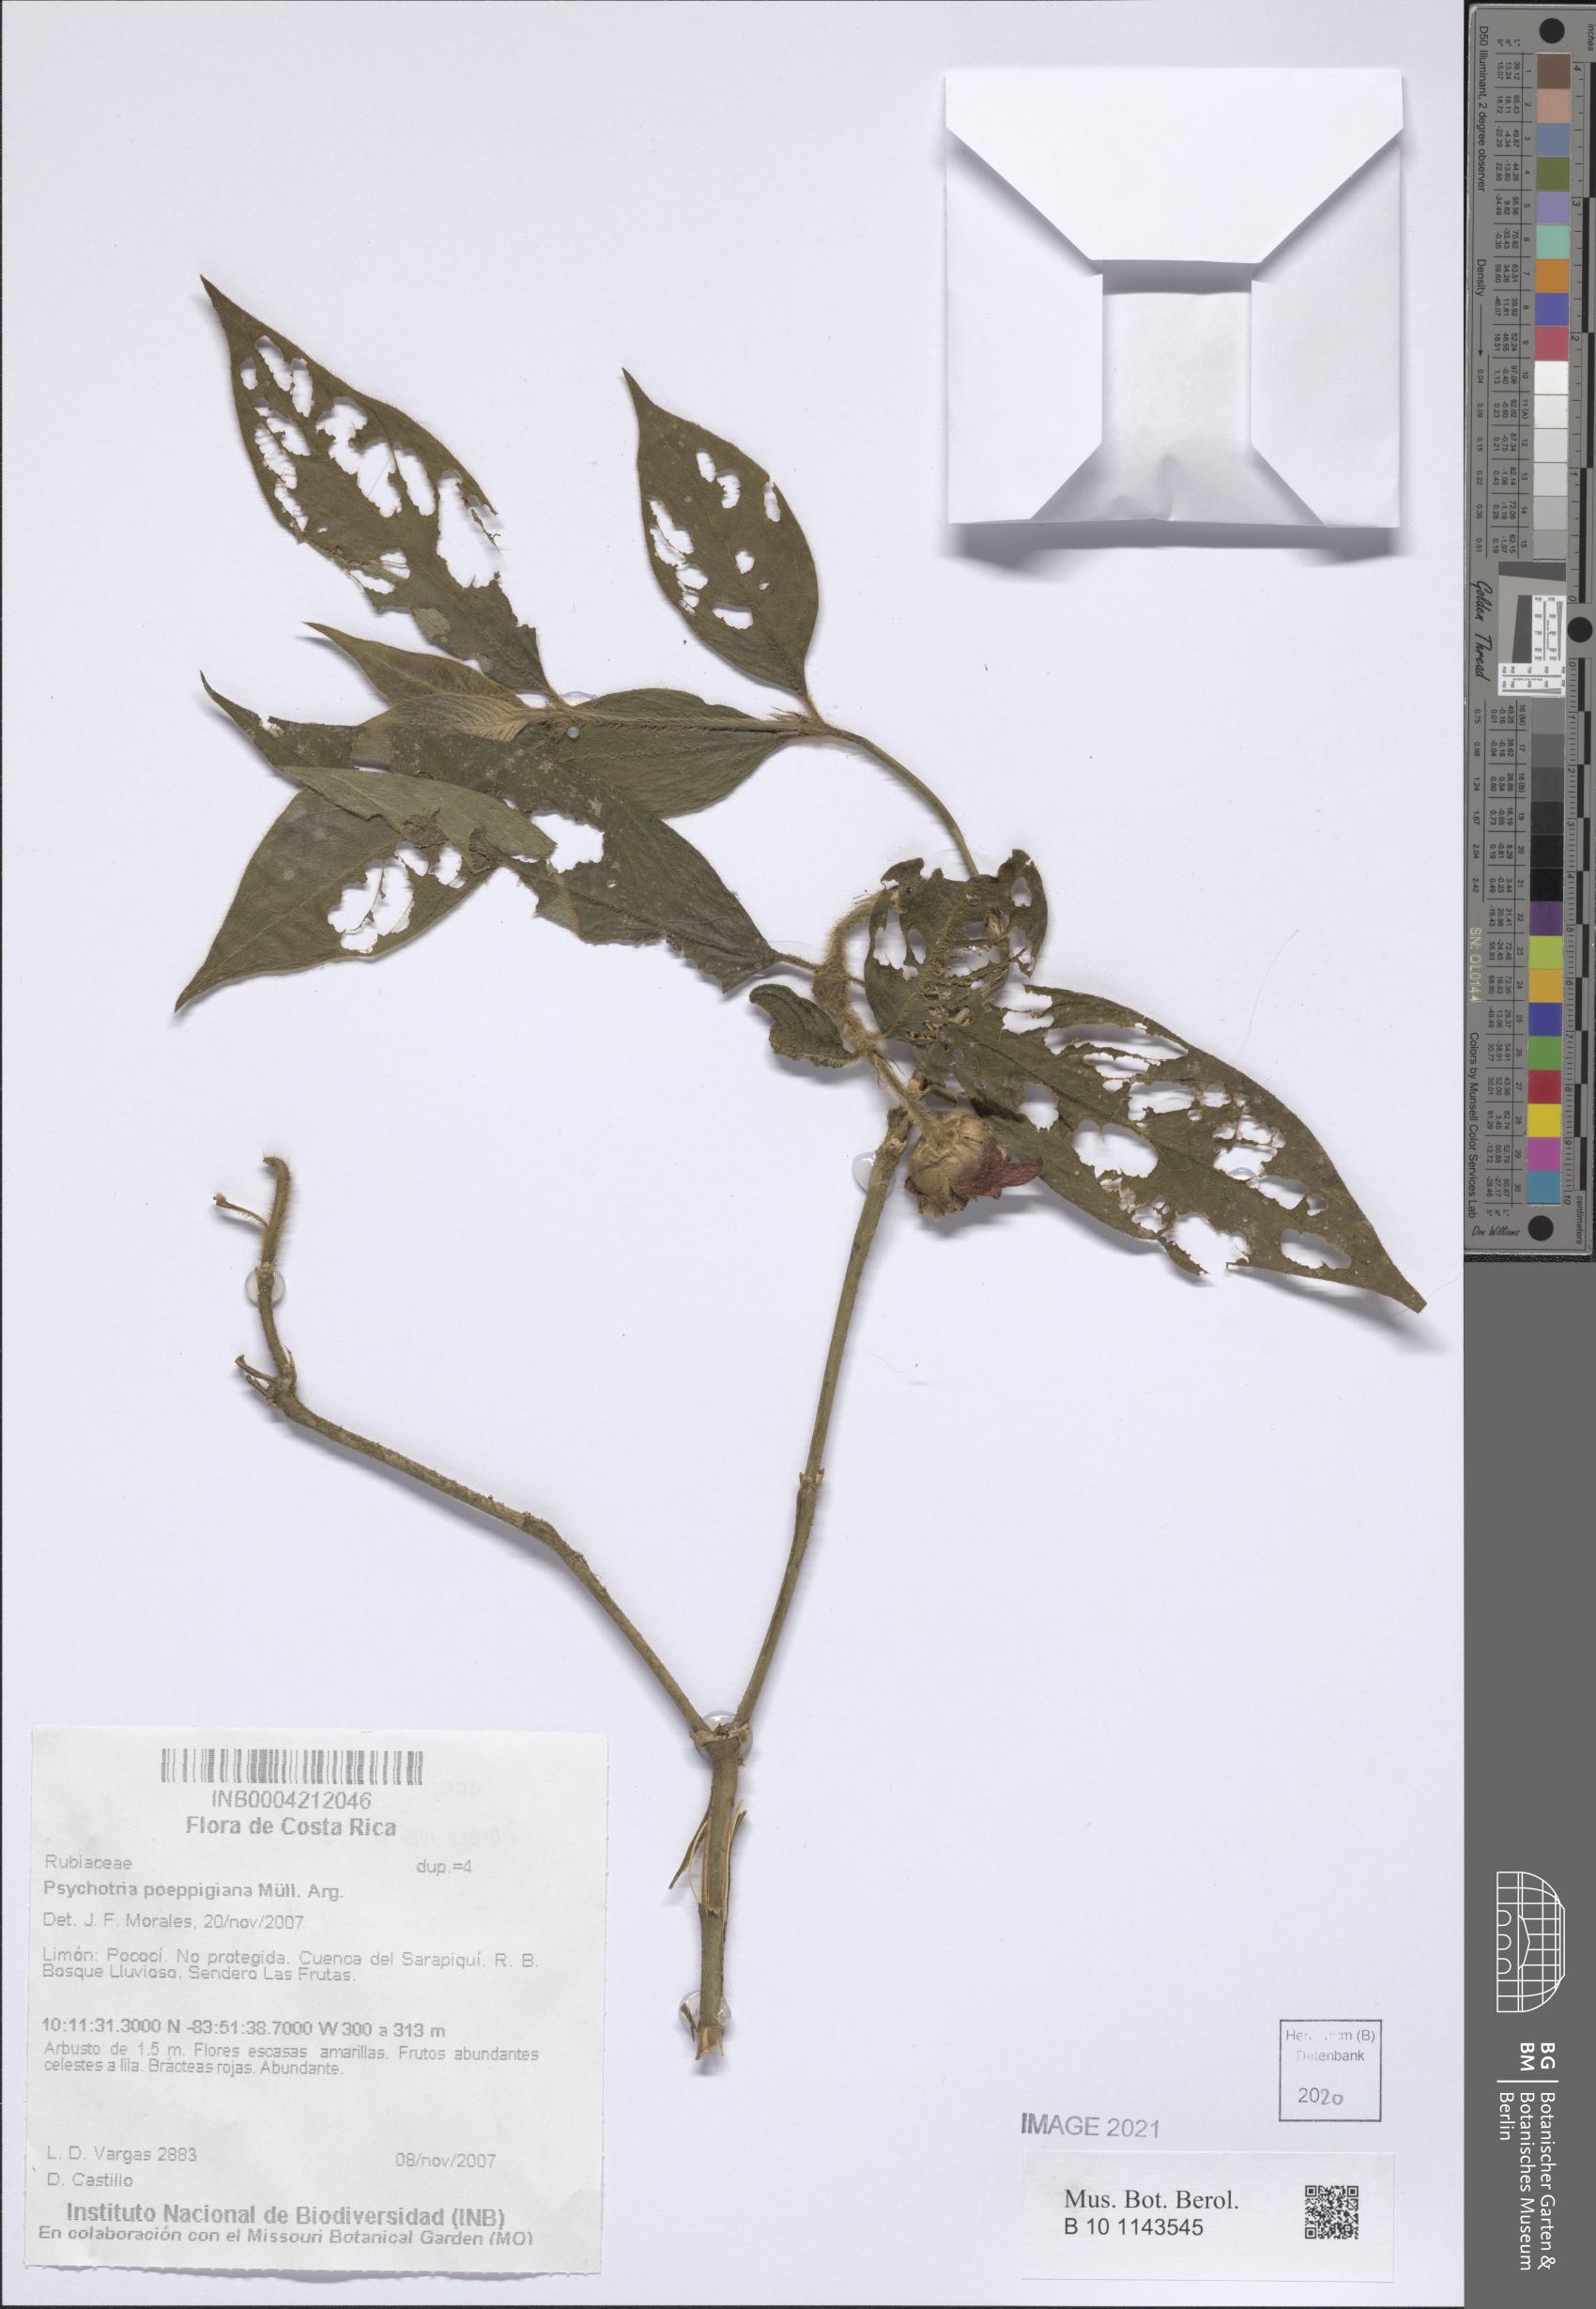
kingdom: Plantae
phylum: Tracheophyta
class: Magnoliopsida
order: Gentianales
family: Rubiaceae
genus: Palicourea
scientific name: Palicourea tomentosa
